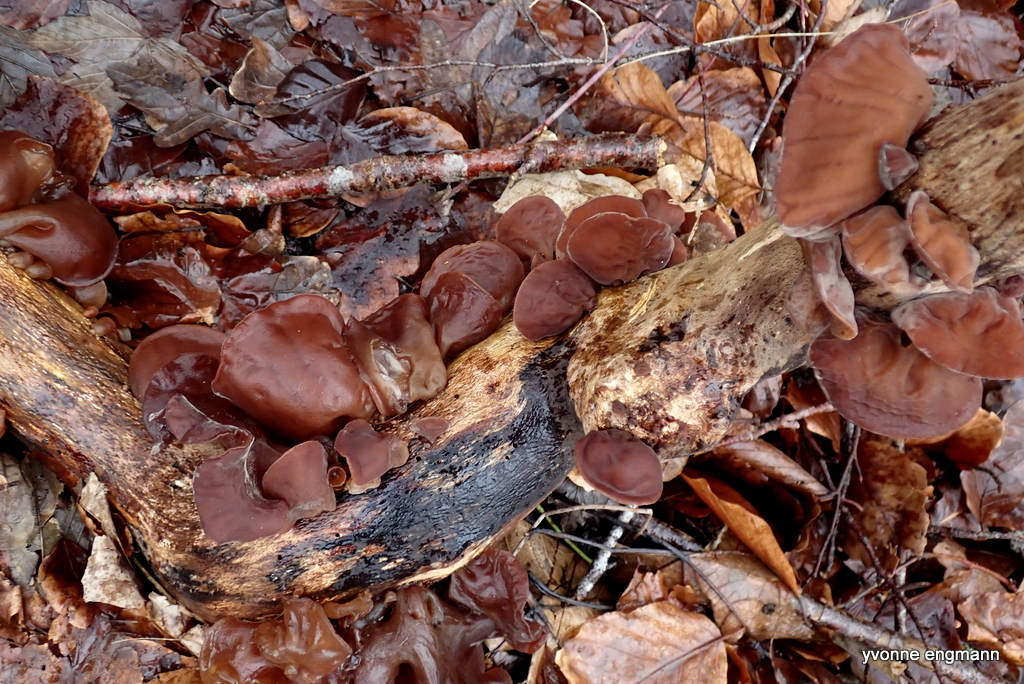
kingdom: Fungi
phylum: Basidiomycota
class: Agaricomycetes
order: Auriculariales
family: Auriculariaceae
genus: Auricularia
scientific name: Auricularia auricula-judae
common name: almindelig judasøre
